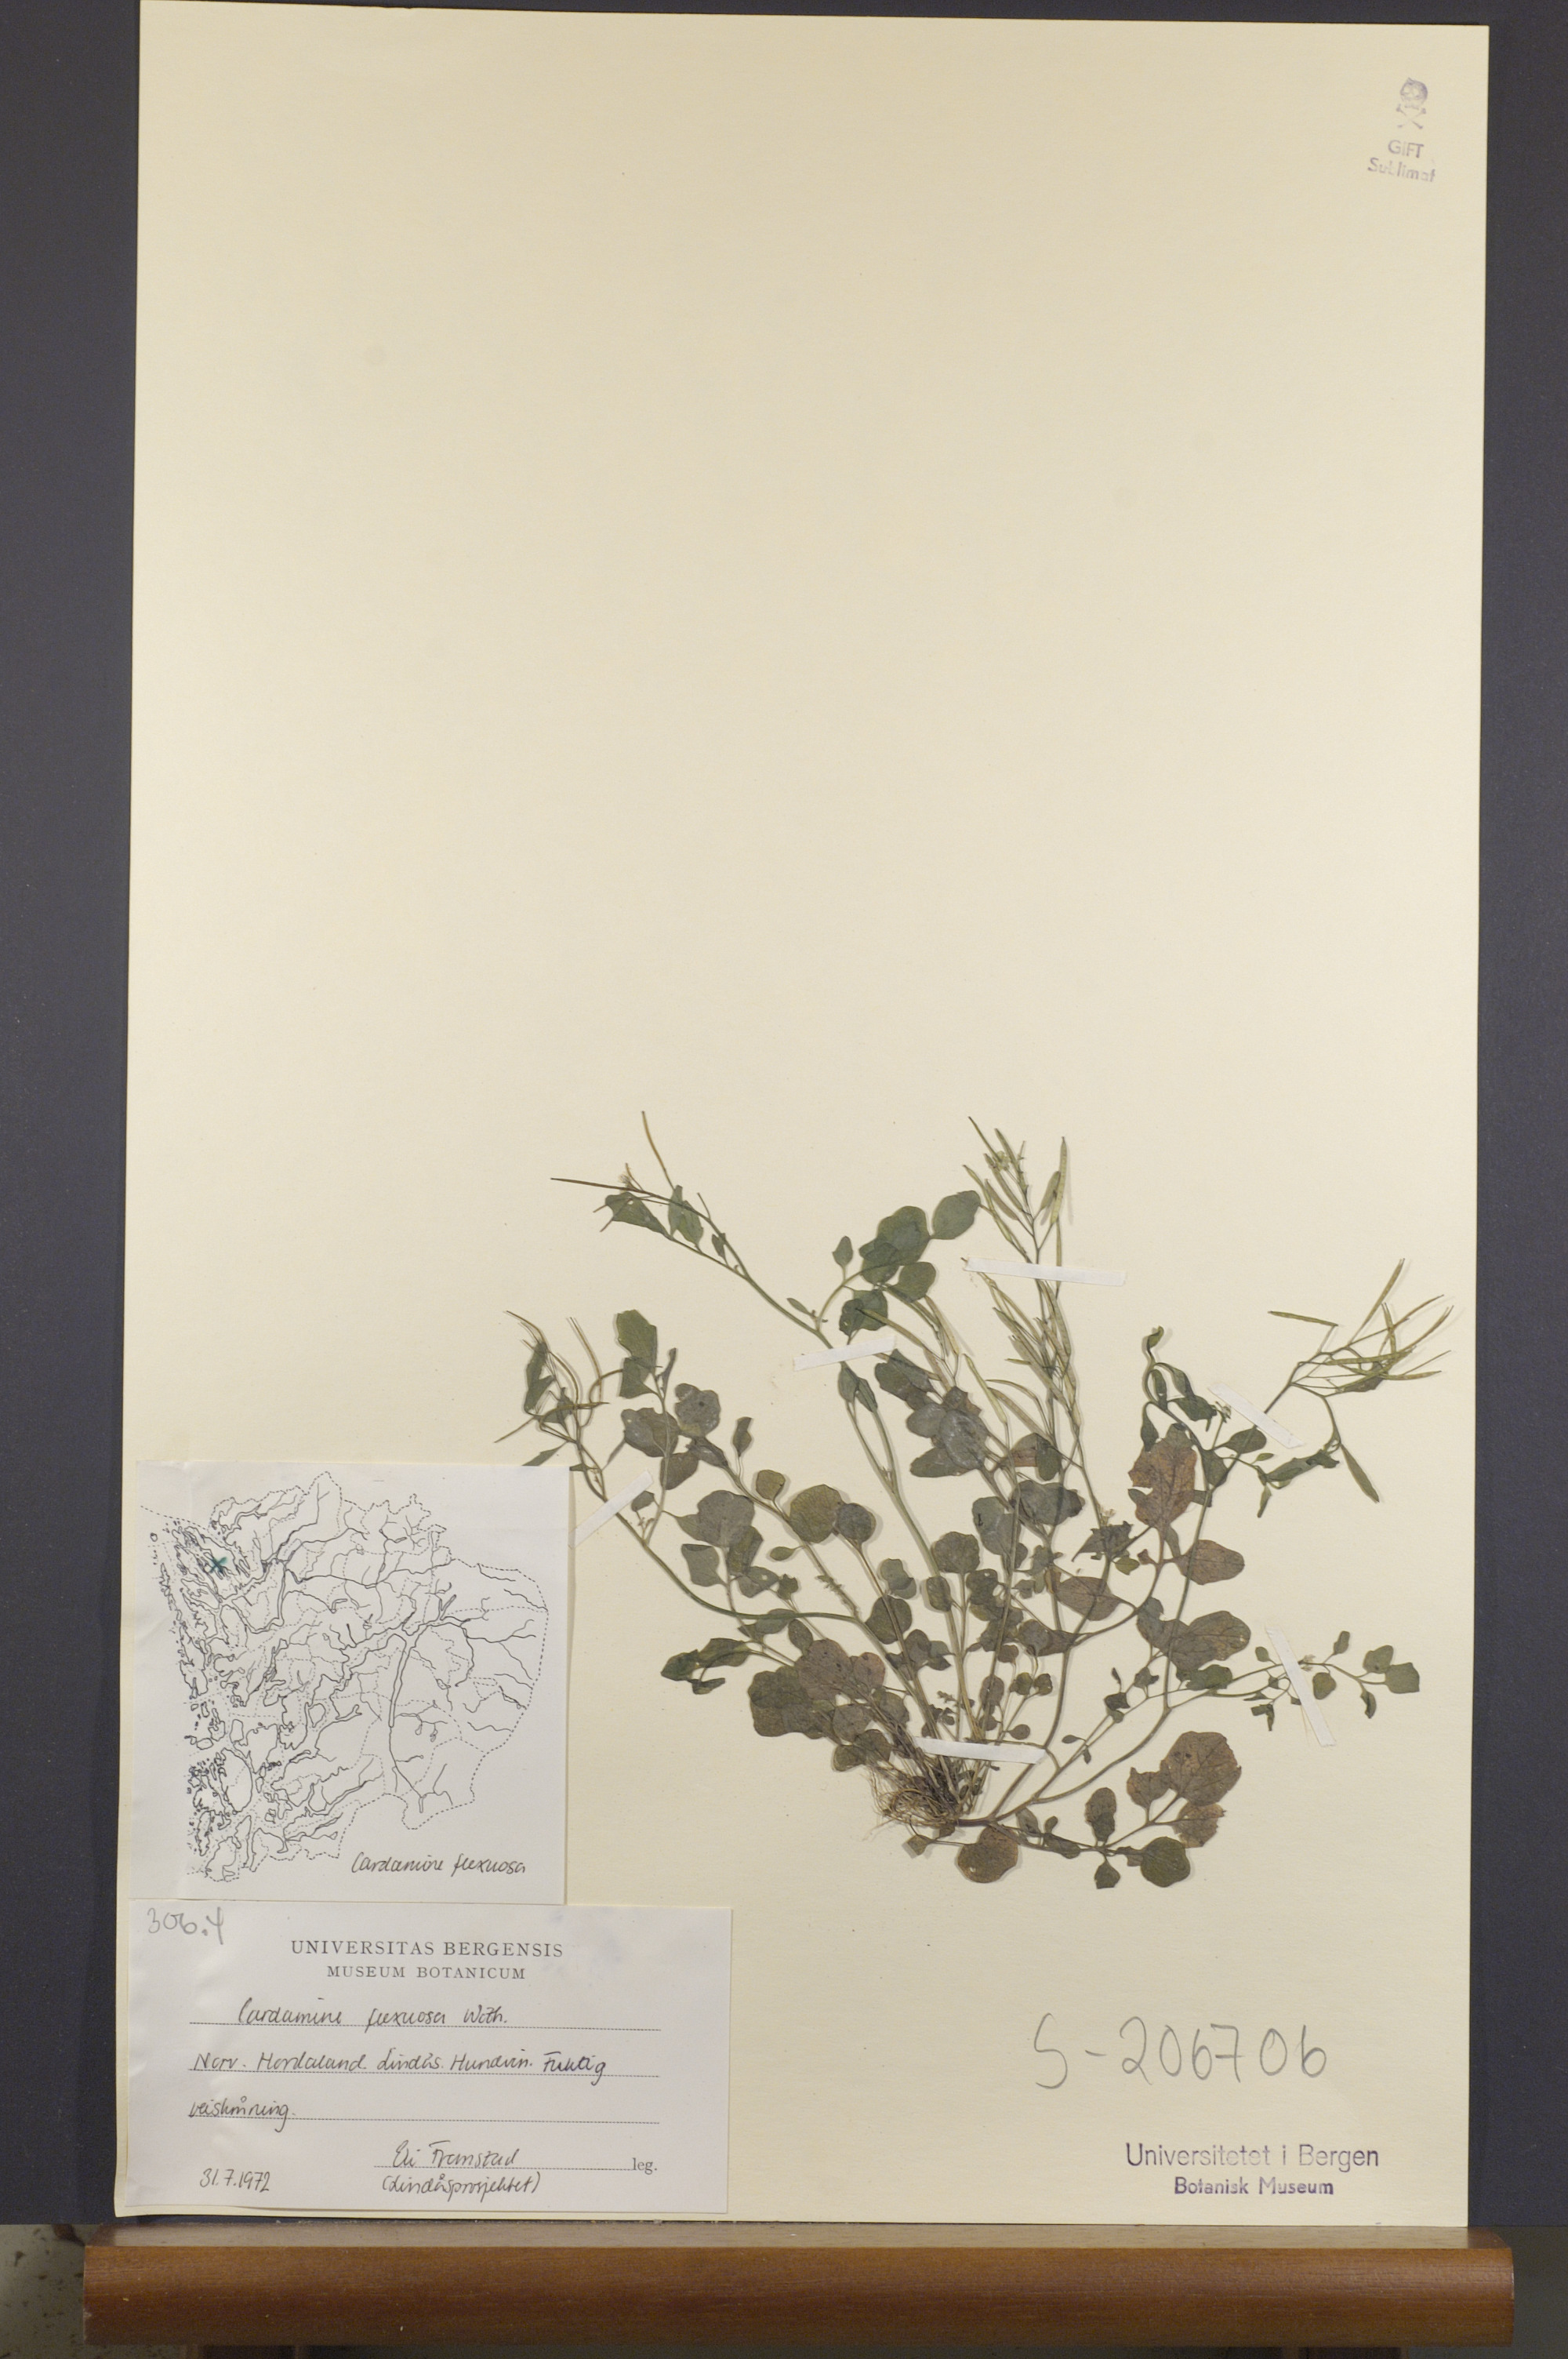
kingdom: Plantae
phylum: Tracheophyta
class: Magnoliopsida
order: Brassicales
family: Brassicaceae
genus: Cardamine
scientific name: Cardamine flexuosa
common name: Woodland bittercress
